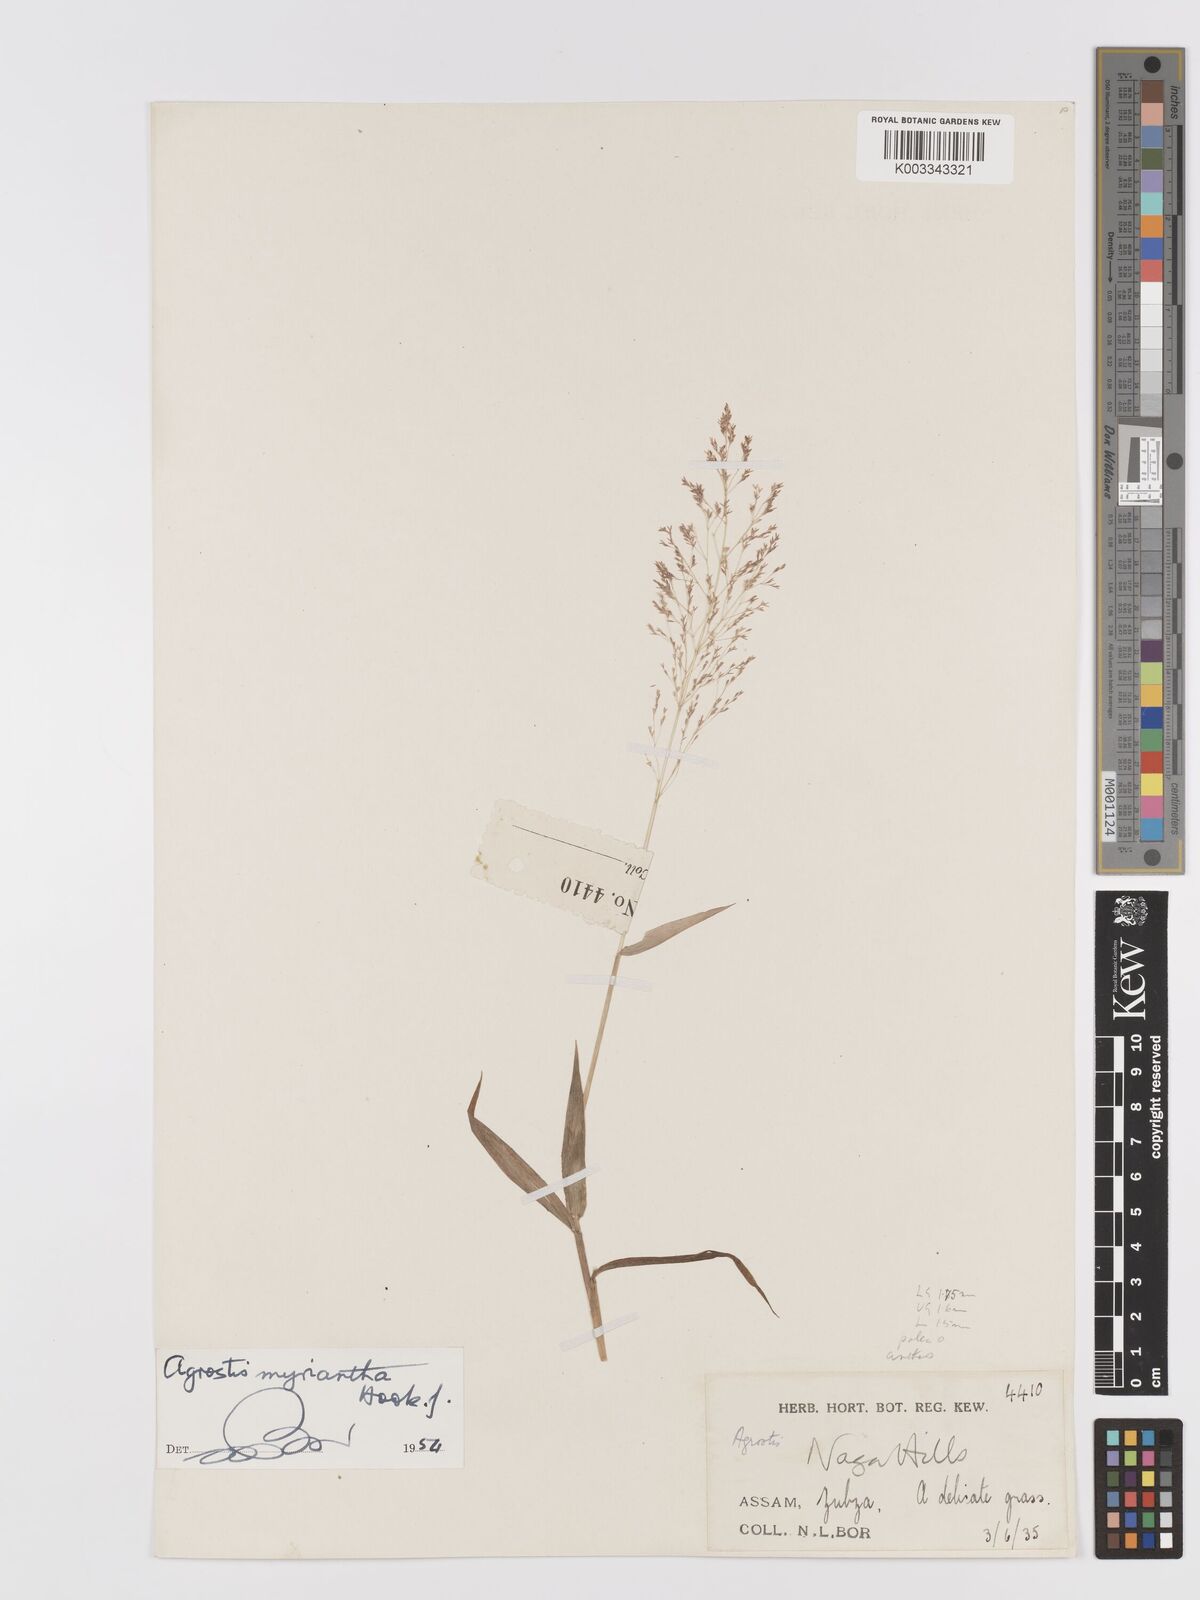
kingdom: Plantae
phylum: Tracheophyta
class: Liliopsida
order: Poales
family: Poaceae
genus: Agrostis
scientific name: Agrostis micrantha
